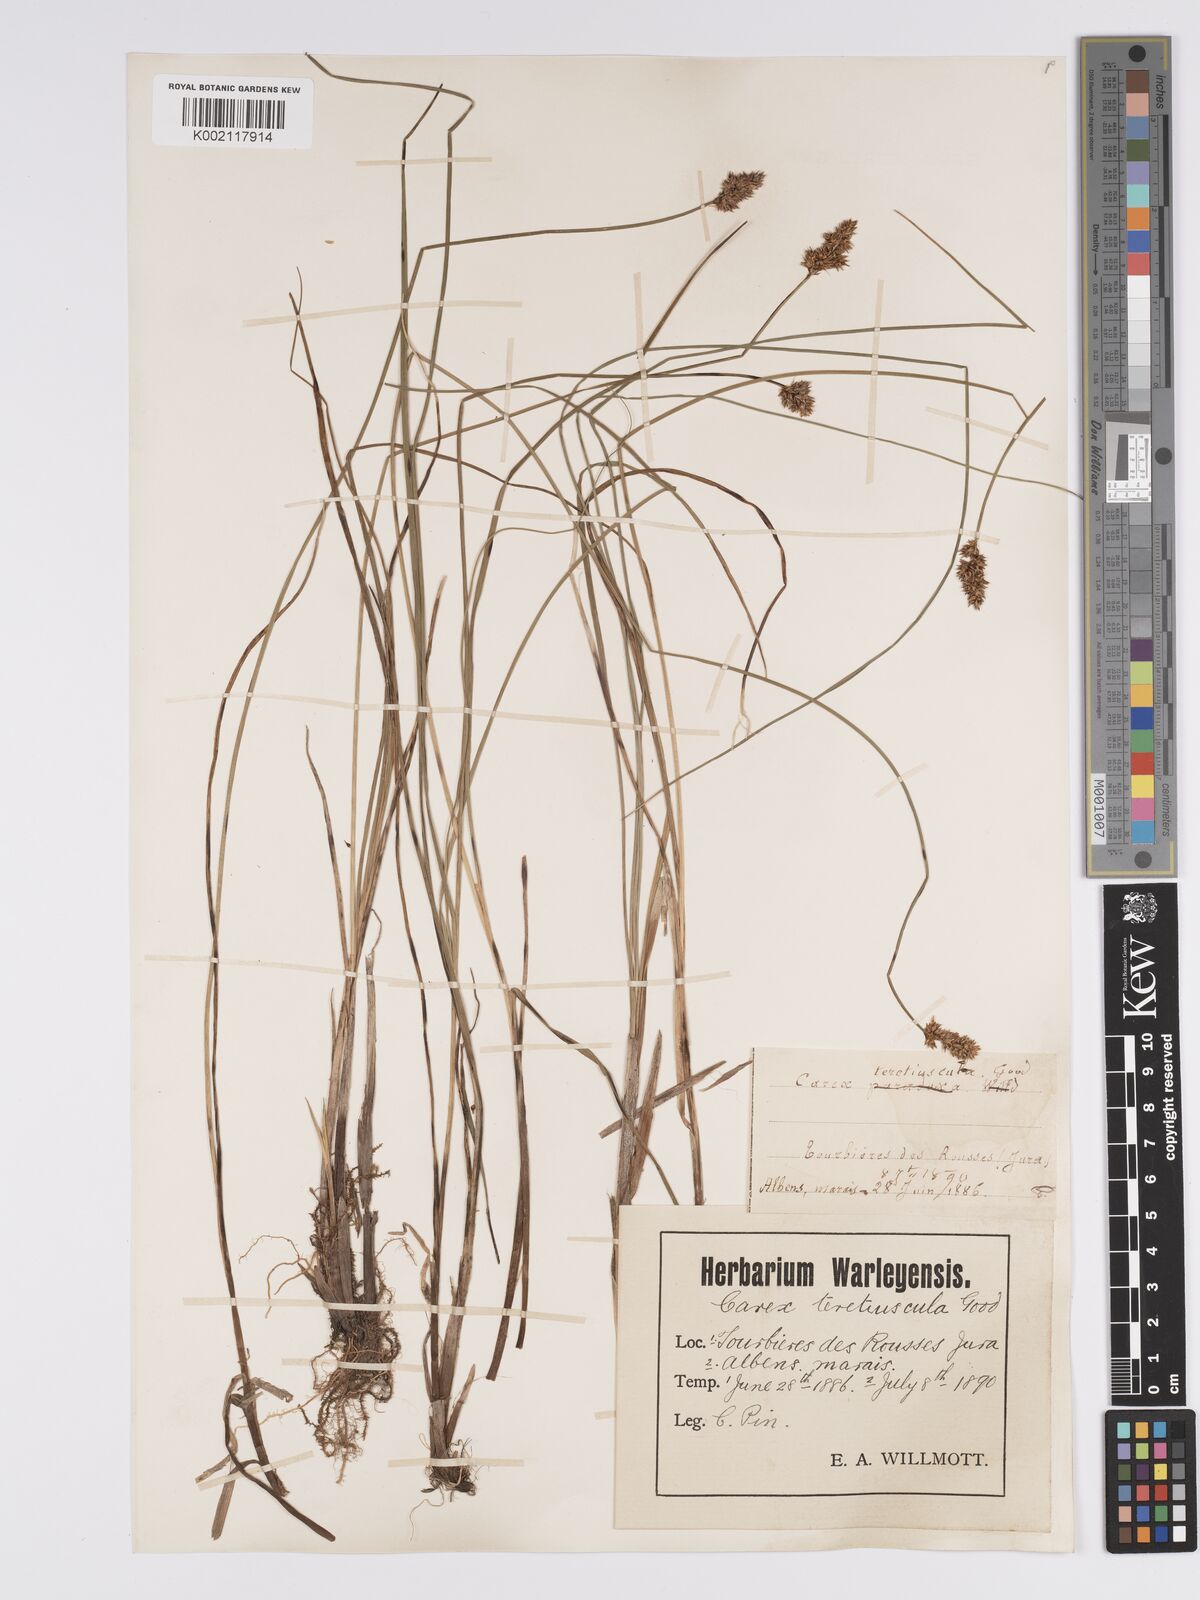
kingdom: Plantae
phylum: Tracheophyta
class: Liliopsida
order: Poales
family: Cyperaceae
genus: Carex
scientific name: Carex diandra
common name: Lesser tussock-sedge
